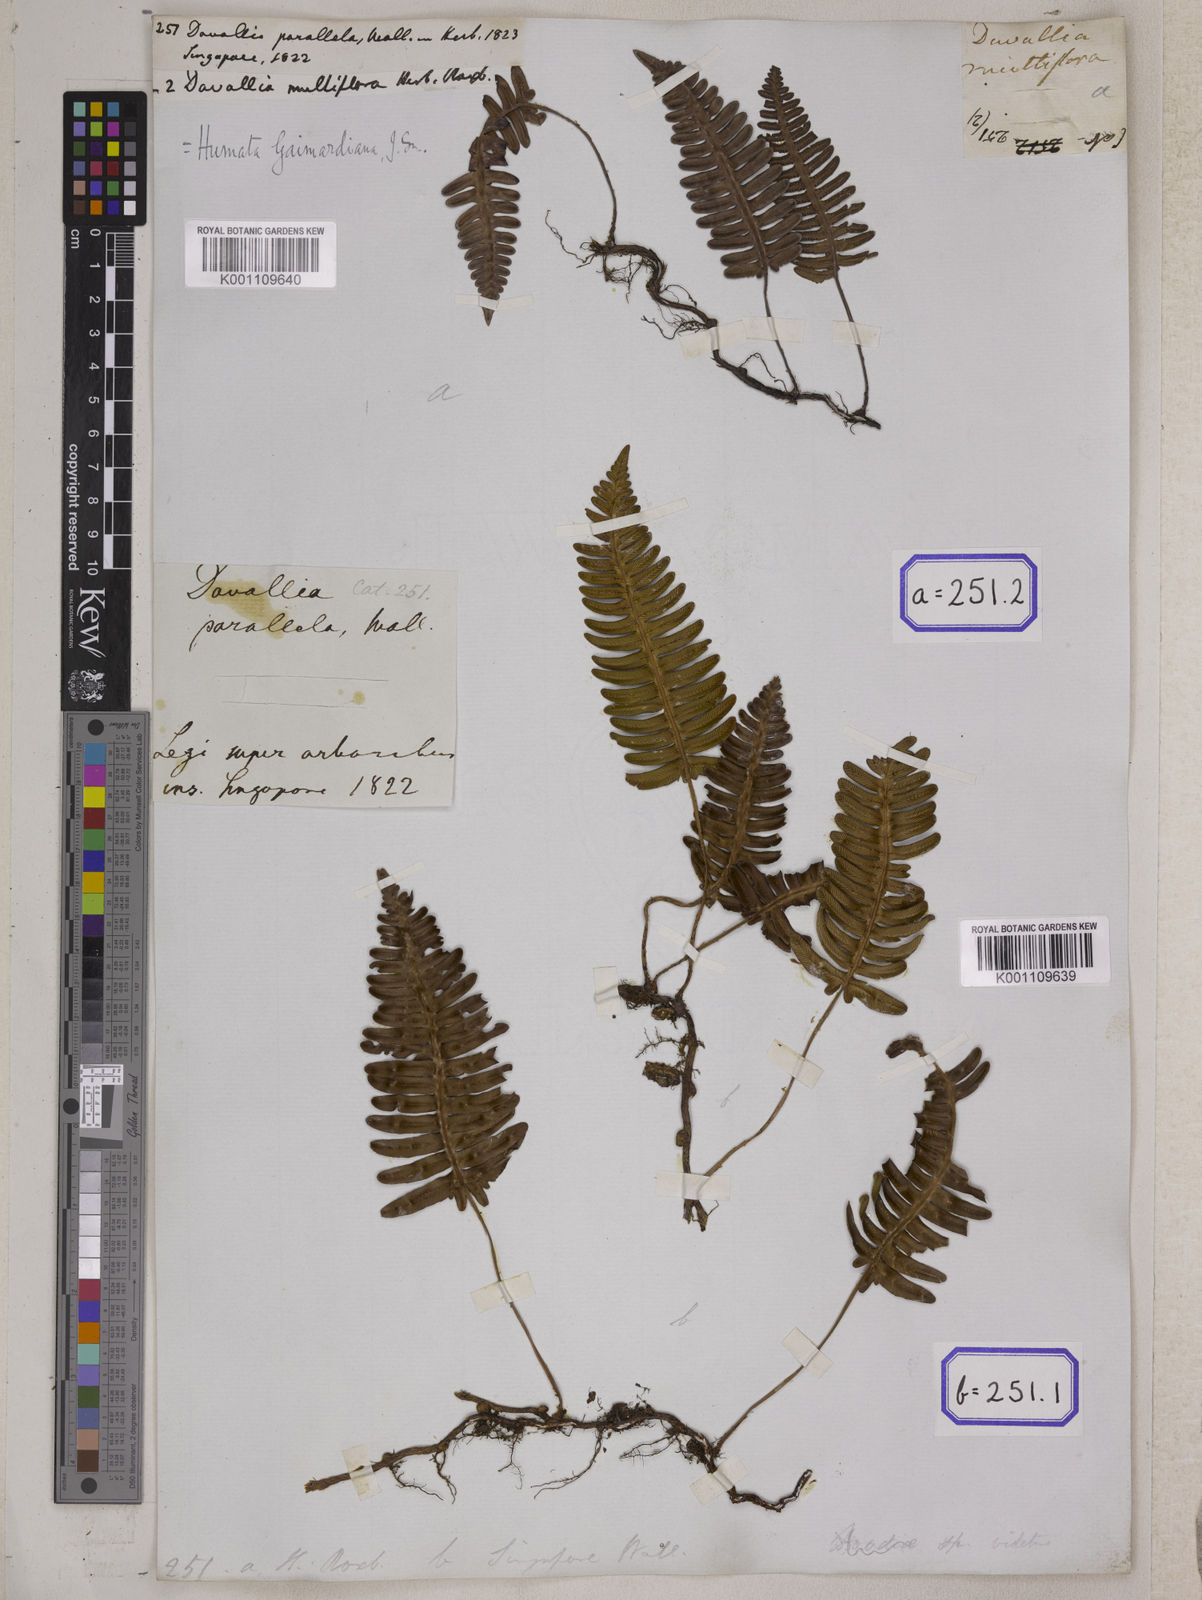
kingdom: Plantae
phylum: Tracheophyta
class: Polypodiopsida
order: Polypodiales
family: Davalliaceae
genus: Davallia
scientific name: Davallia pectinata
